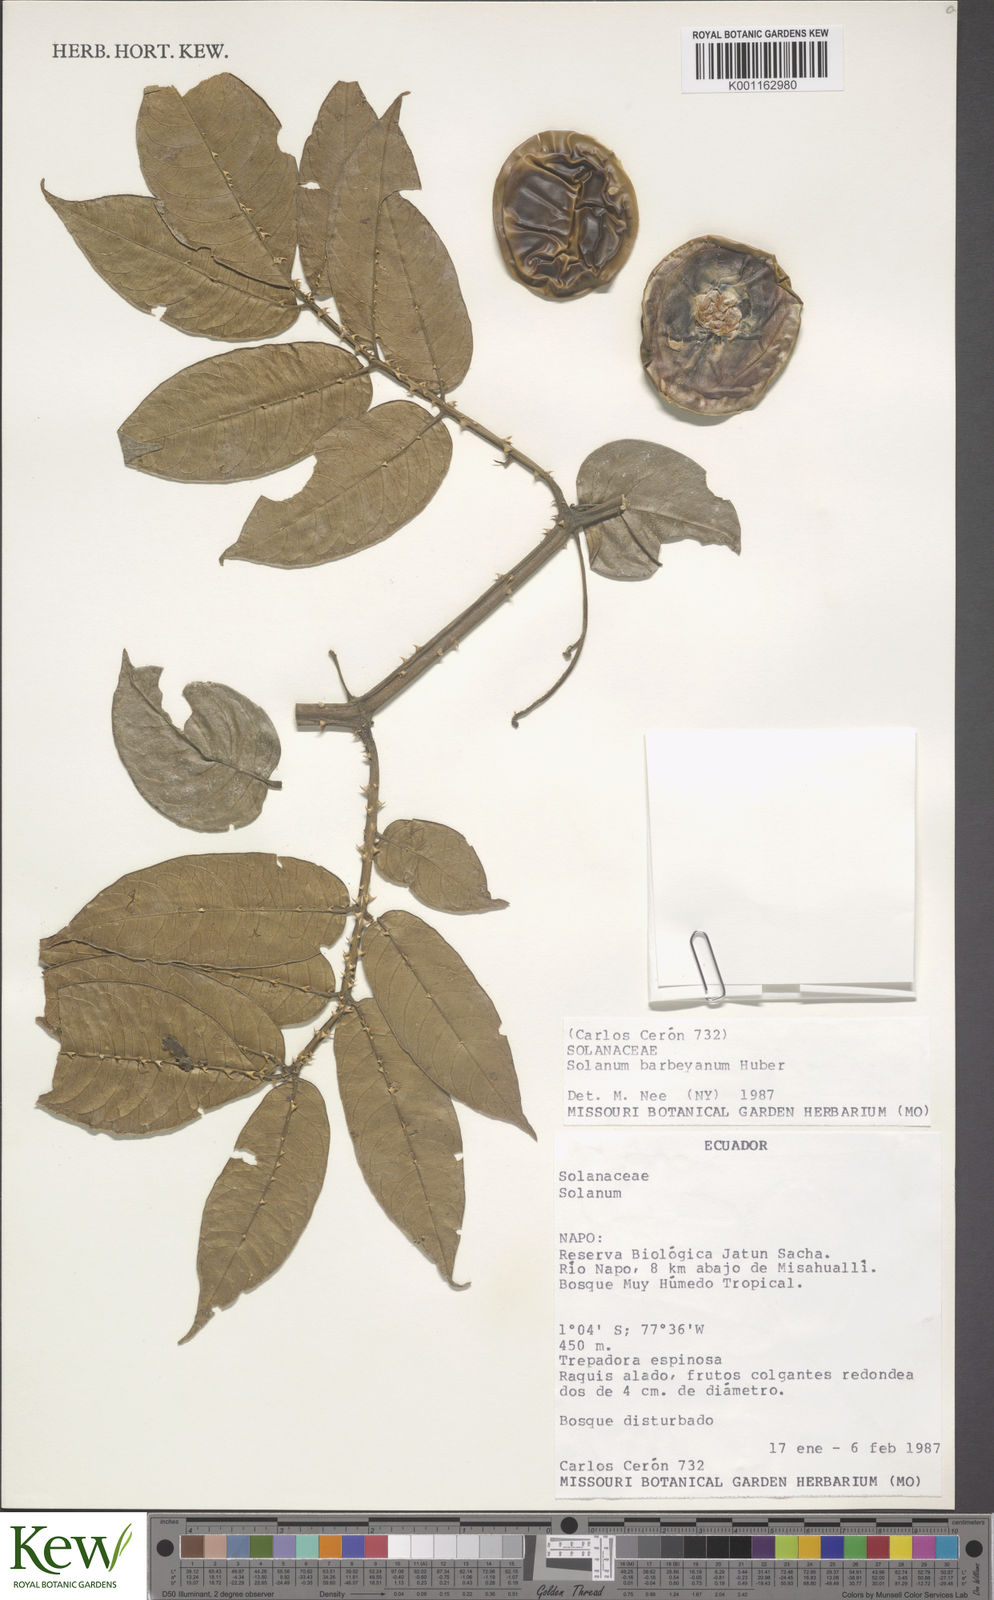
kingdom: Plantae
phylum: Tracheophyta
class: Magnoliopsida
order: Solanales
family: Solanaceae
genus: Solanum
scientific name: Solanum barbeyanum
